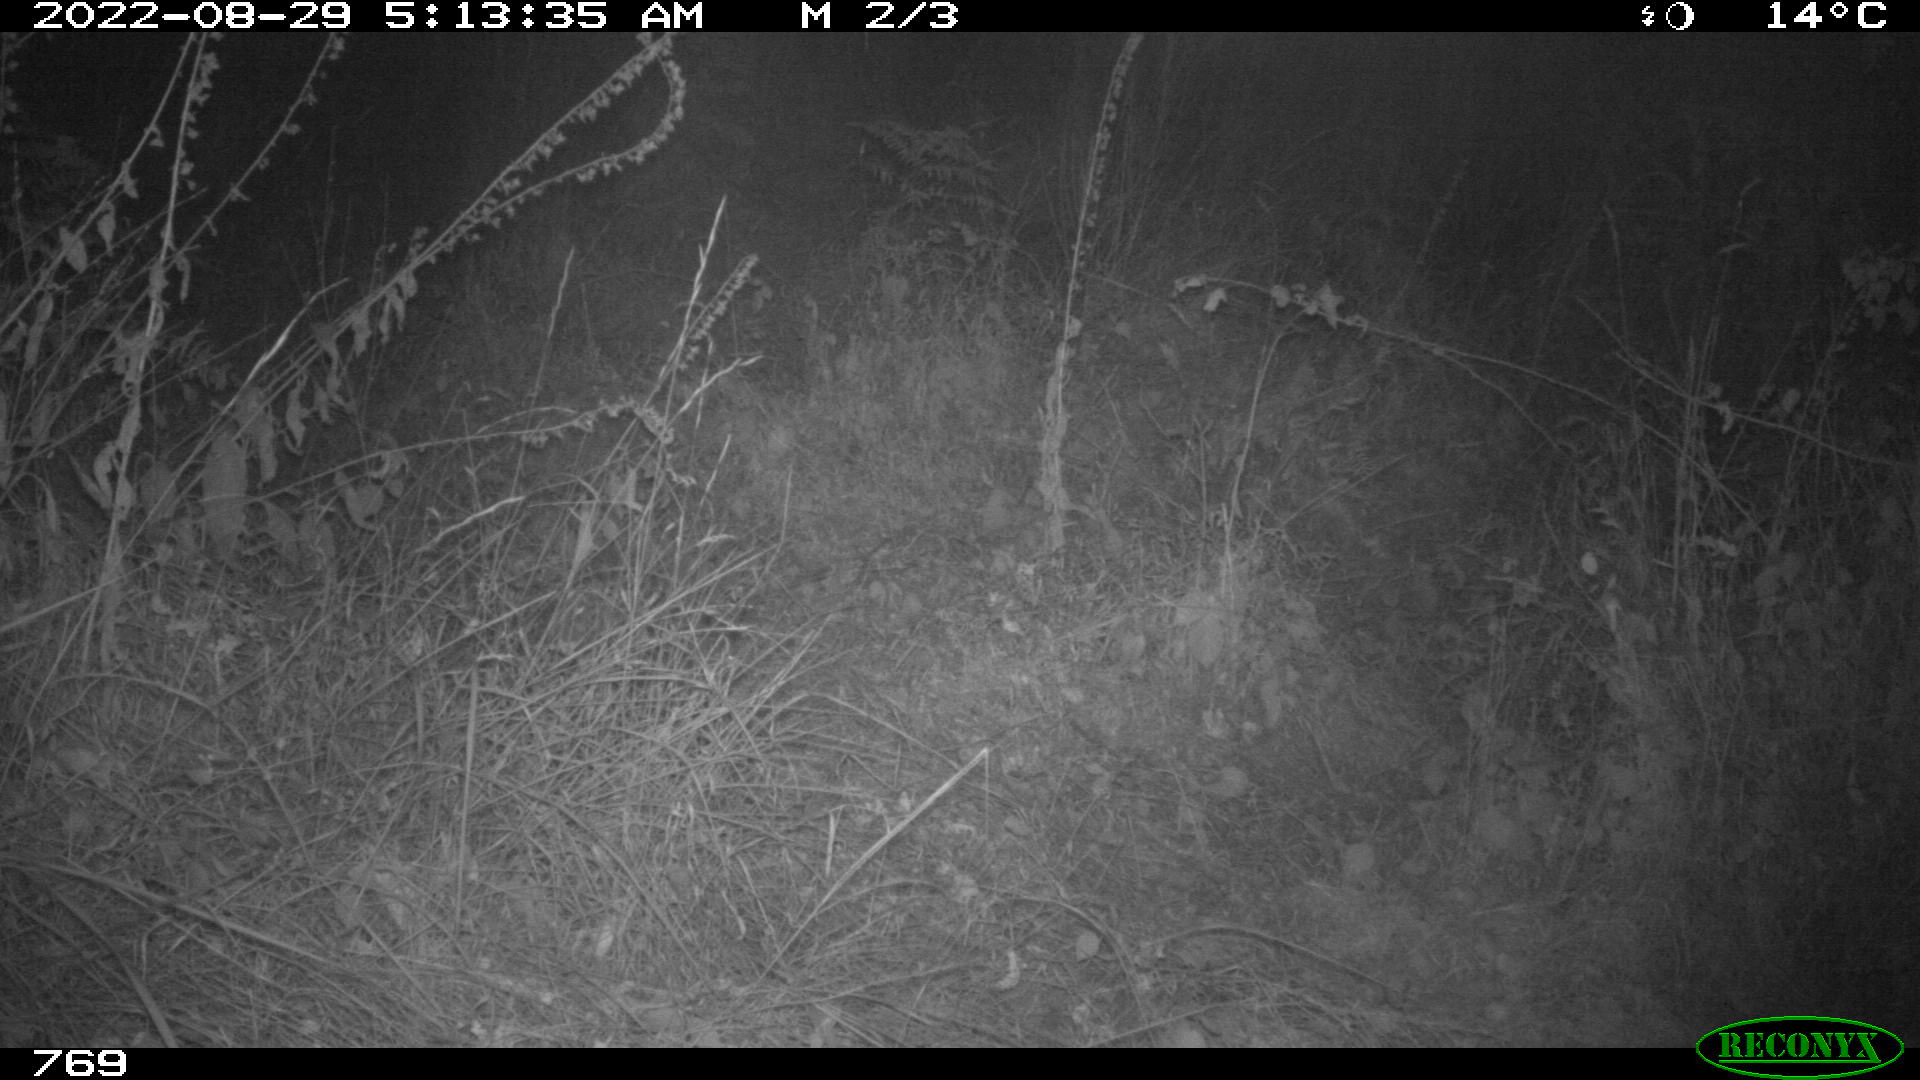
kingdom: Animalia
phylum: Chordata
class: Mammalia
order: Artiodactyla
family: Cervidae
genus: Capreolus
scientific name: Capreolus capreolus
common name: Western roe deer
